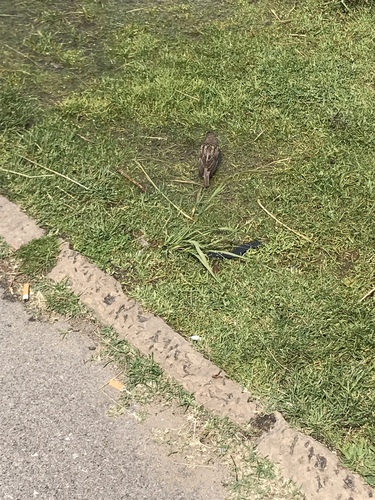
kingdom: Animalia
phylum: Chordata
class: Aves
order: Passeriformes
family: Passeridae
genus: Passer
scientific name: Passer domesticus
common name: House sparrow
